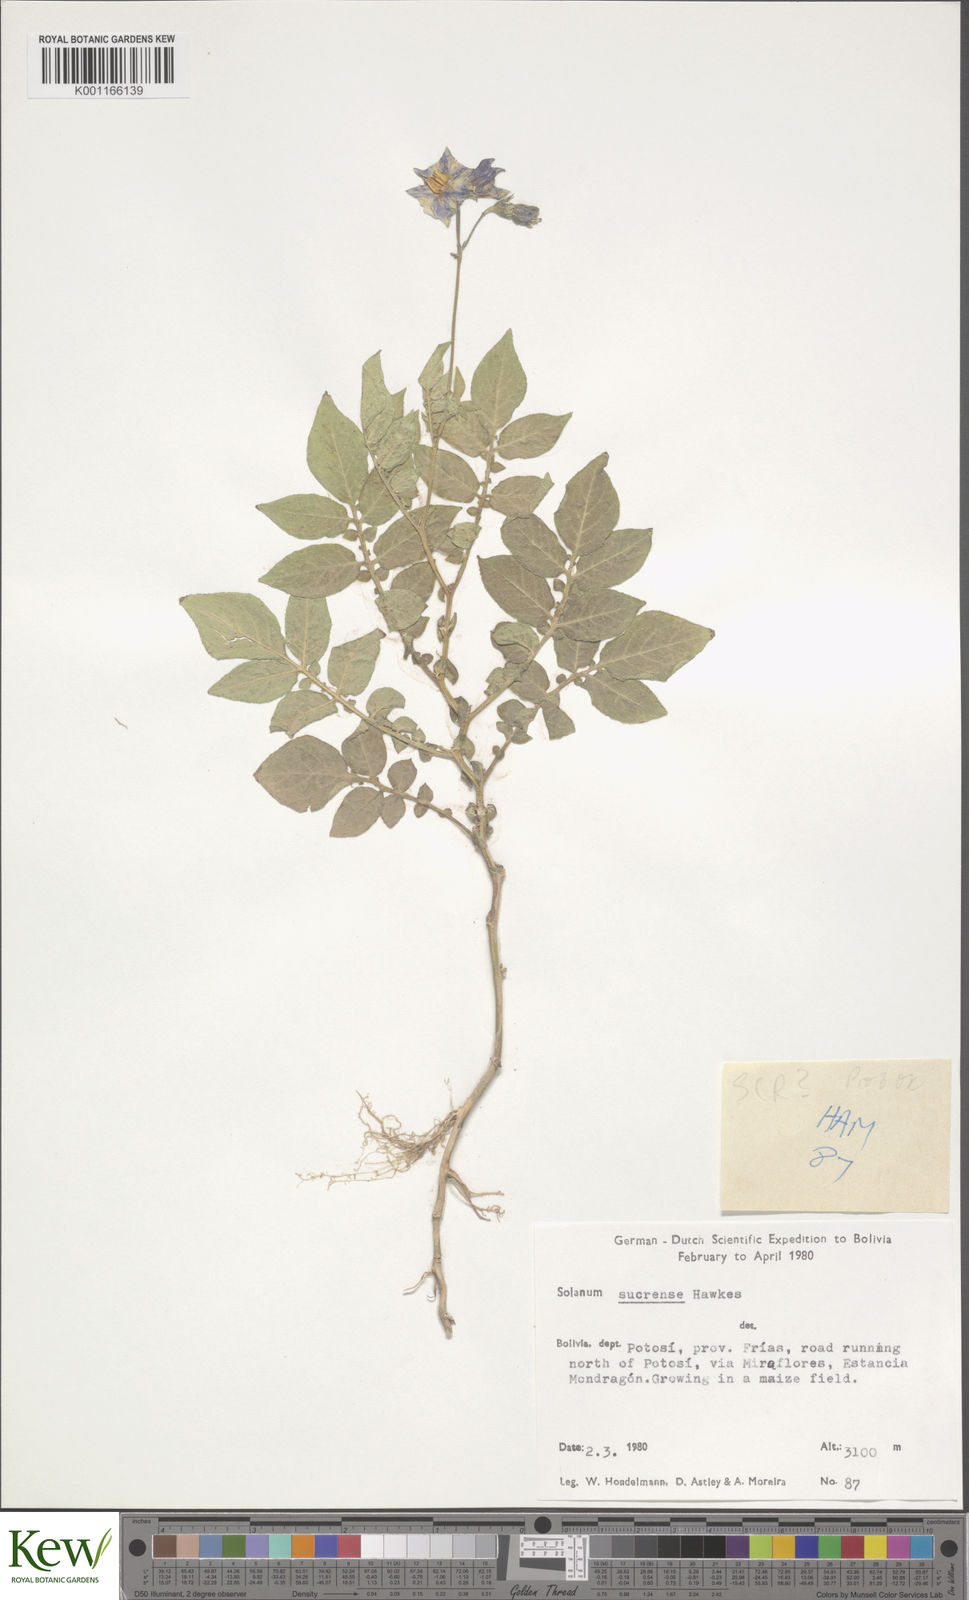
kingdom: Plantae
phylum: Tracheophyta
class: Magnoliopsida
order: Solanales
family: Solanaceae
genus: Solanum
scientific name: Solanum brevicaule
